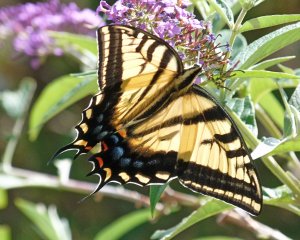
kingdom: Animalia
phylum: Arthropoda
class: Insecta
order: Lepidoptera
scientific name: Lepidoptera
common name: Butterflies
